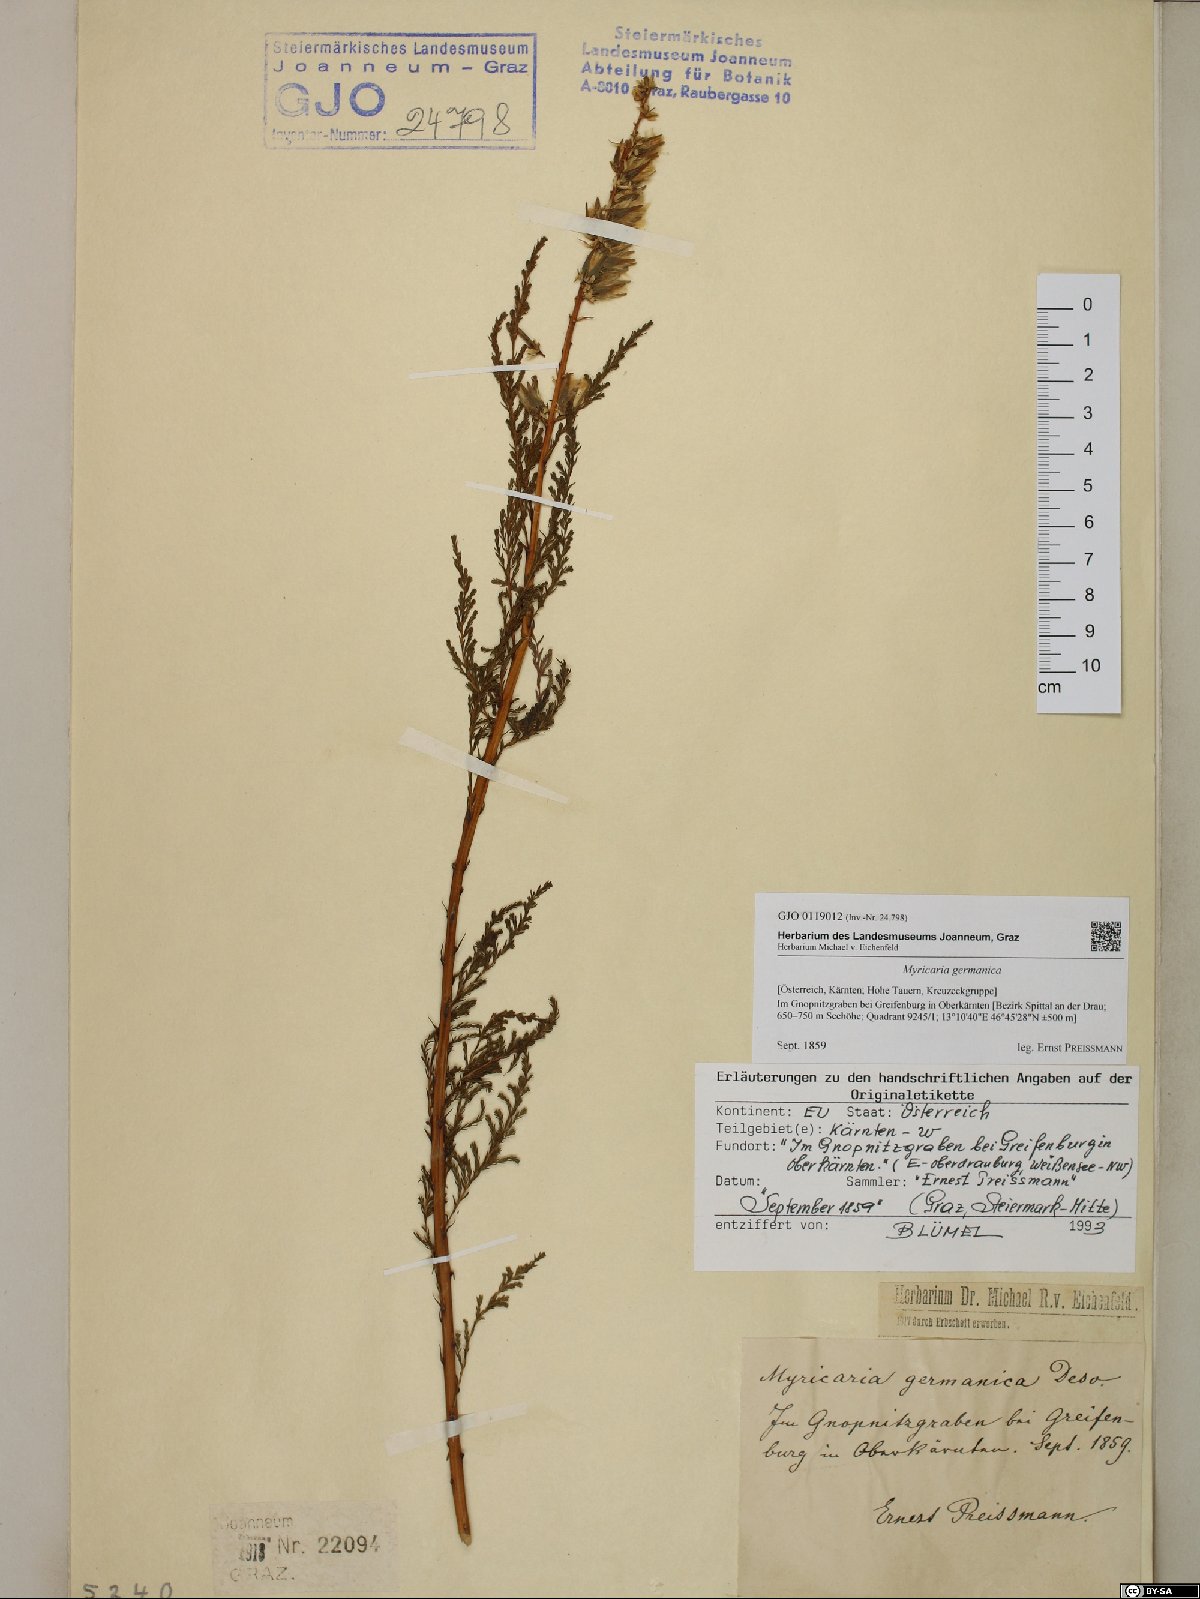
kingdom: Plantae
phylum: Tracheophyta
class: Magnoliopsida
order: Caryophyllales
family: Tamaricaceae
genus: Myricaria
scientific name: Myricaria germanica
